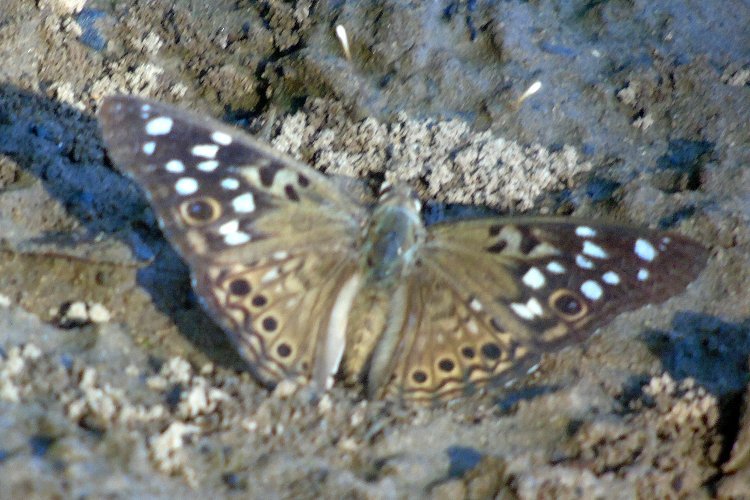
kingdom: Animalia
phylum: Arthropoda
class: Insecta
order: Lepidoptera
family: Nymphalidae
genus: Asterocampa
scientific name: Asterocampa celtis
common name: Hackberry Emperor
